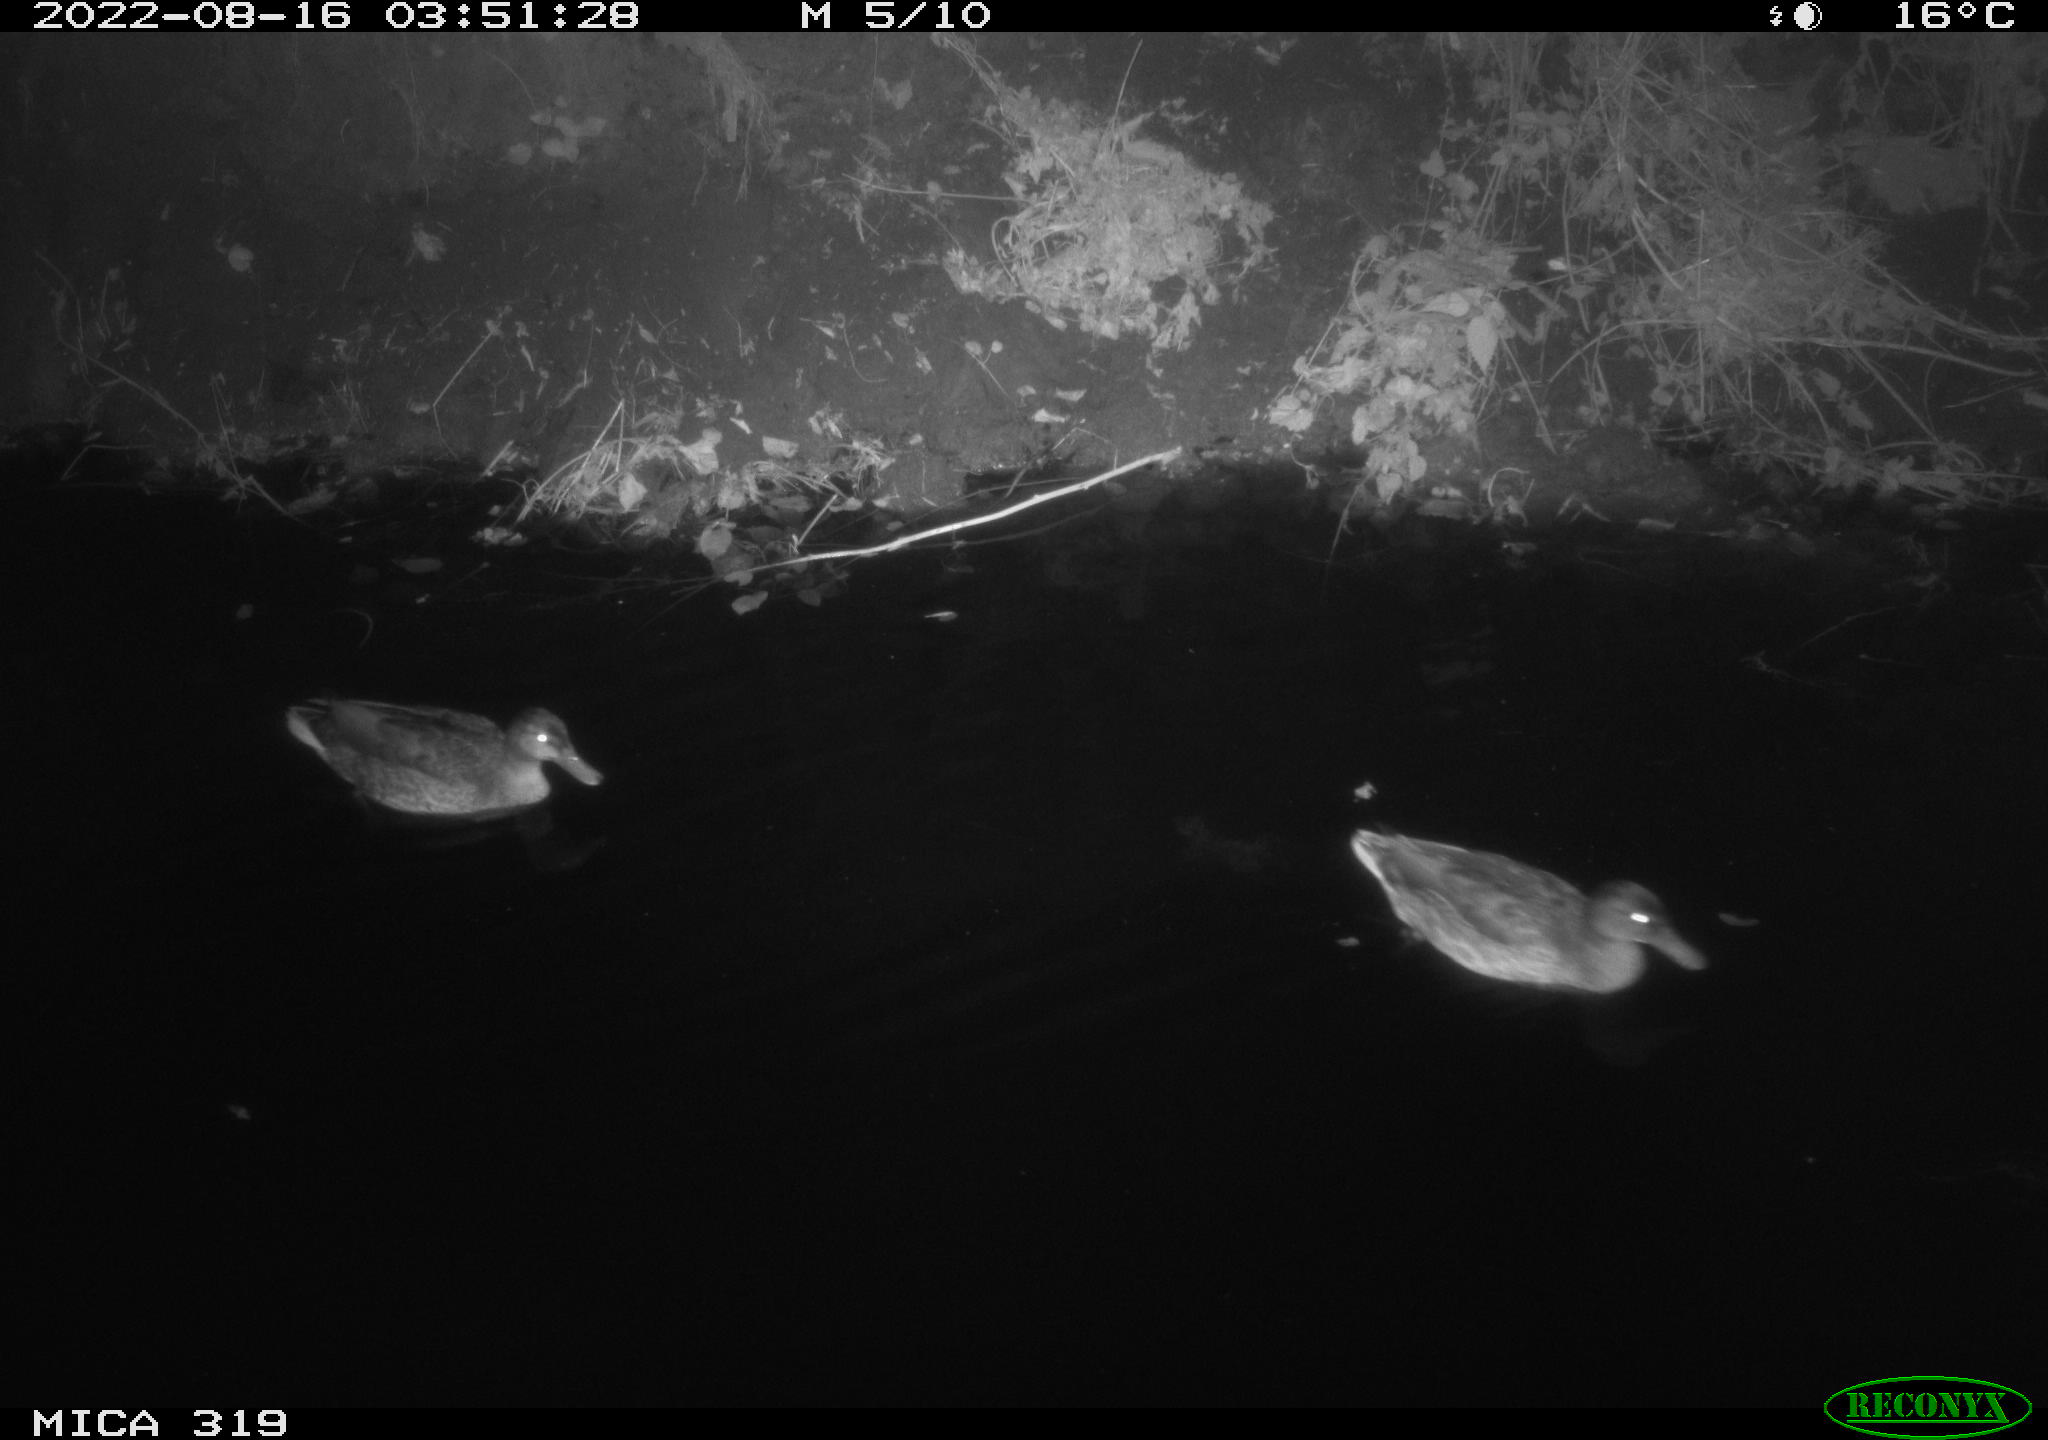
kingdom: Animalia
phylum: Chordata
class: Aves
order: Anseriformes
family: Anatidae
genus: Anas
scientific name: Anas
